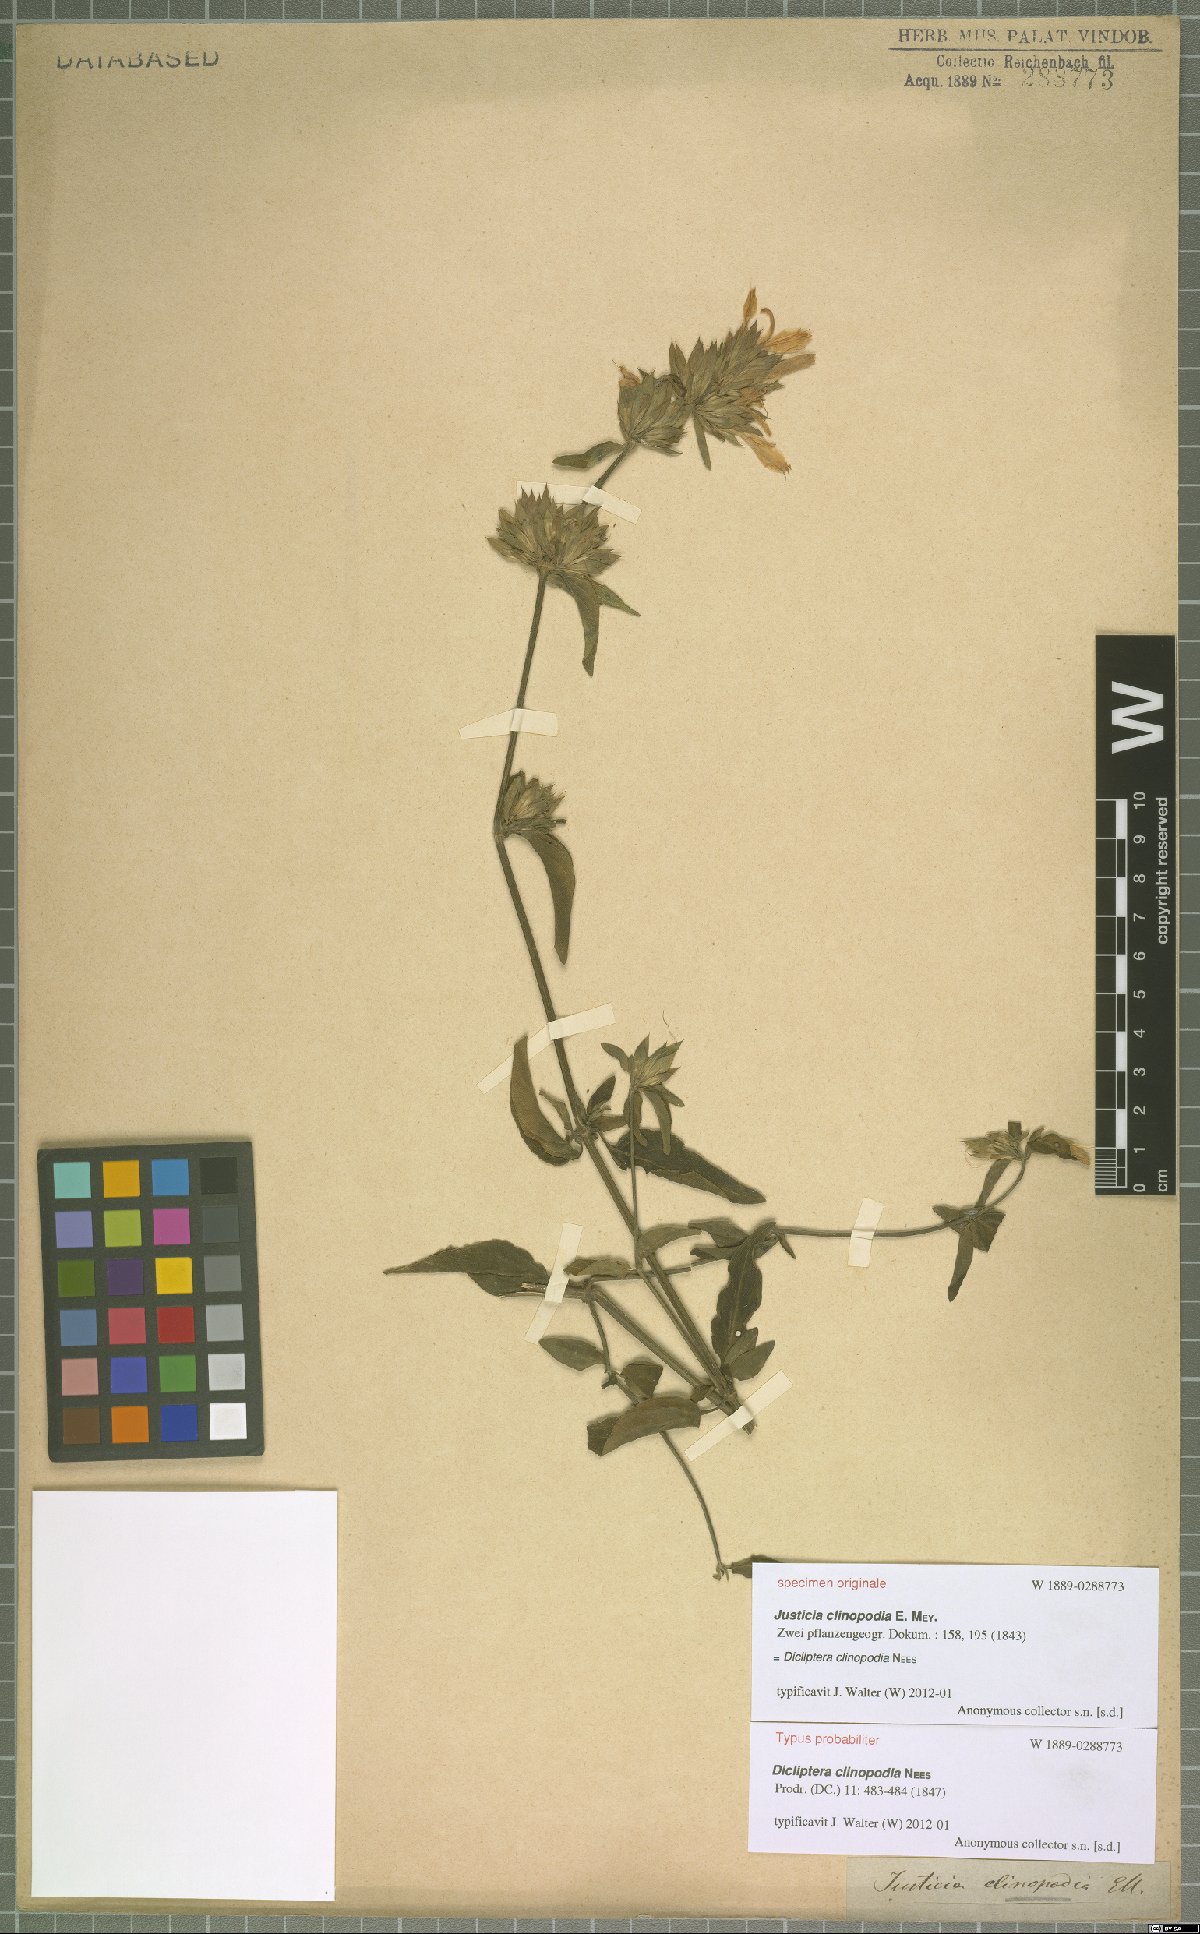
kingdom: Plantae
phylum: Tracheophyta
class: Magnoliopsida
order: Lamiales
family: Acanthaceae
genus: Dicliptera
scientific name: Dicliptera clinopodia
